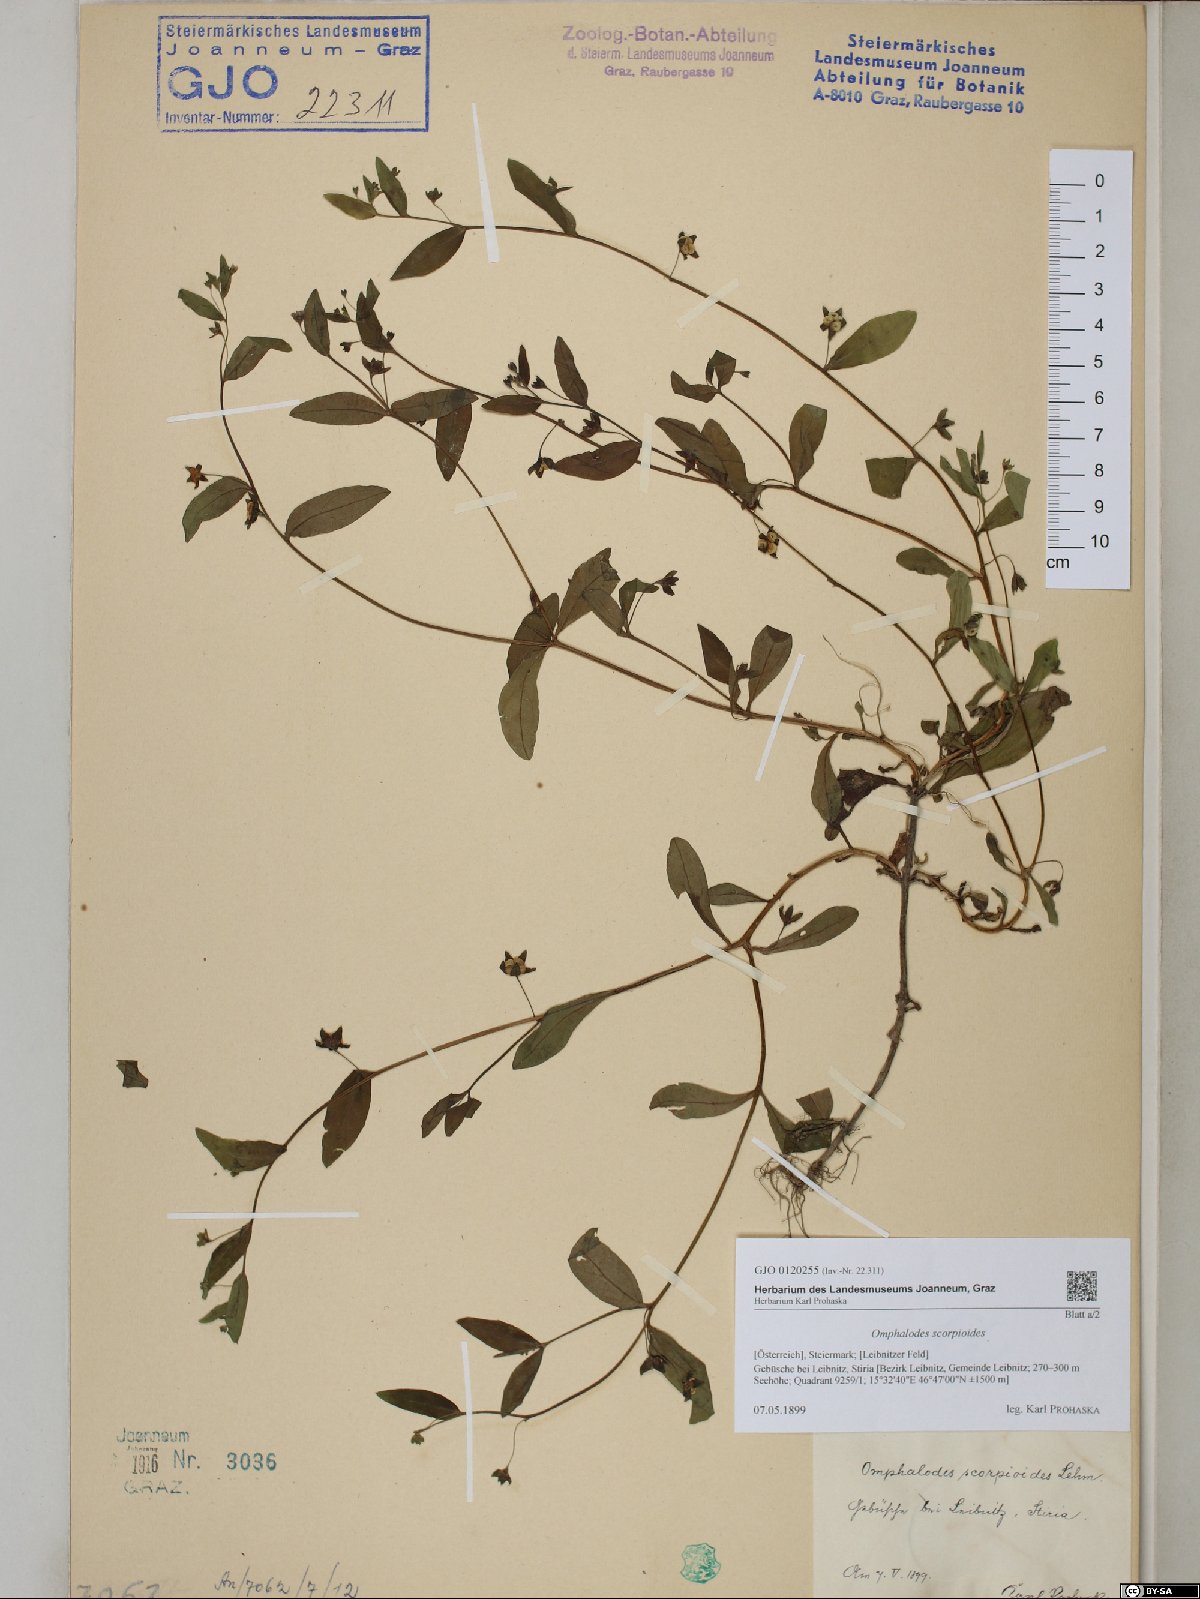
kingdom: Plantae
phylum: Tracheophyta
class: Magnoliopsida
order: Boraginales
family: Boraginaceae
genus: Memoremea
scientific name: Memoremea scorpioides
